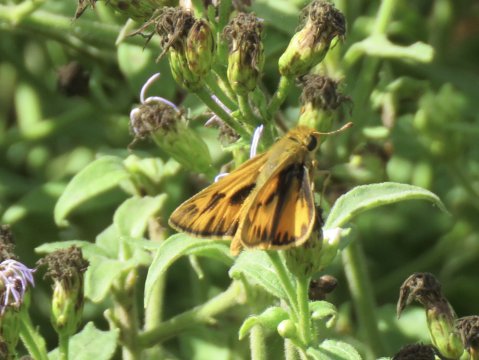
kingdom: Animalia
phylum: Arthropoda
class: Insecta
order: Lepidoptera
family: Hesperiidae
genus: Hylephila
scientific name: Hylephila phyleus
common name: Fiery Skipper
